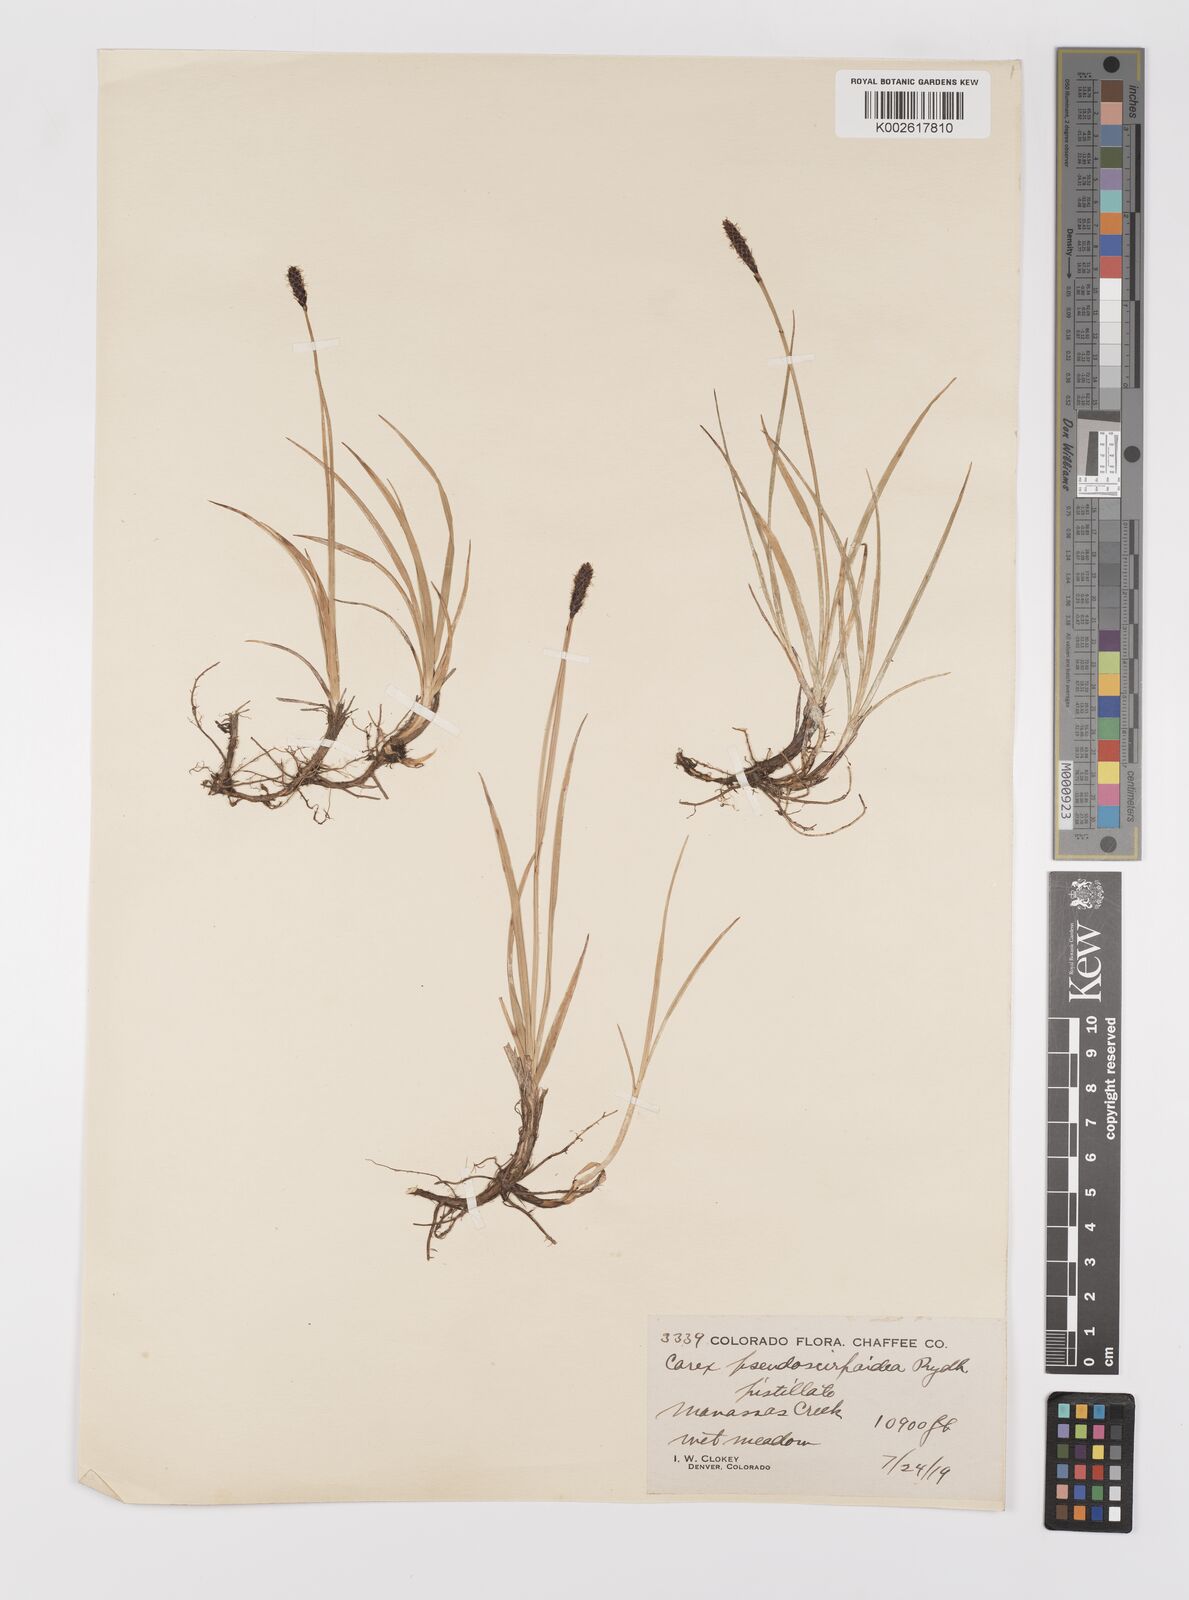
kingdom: Plantae
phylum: Tracheophyta
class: Liliopsida
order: Poales
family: Cyperaceae
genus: Carex
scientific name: Carex scirpoidea
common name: Canada single-spike sedge
